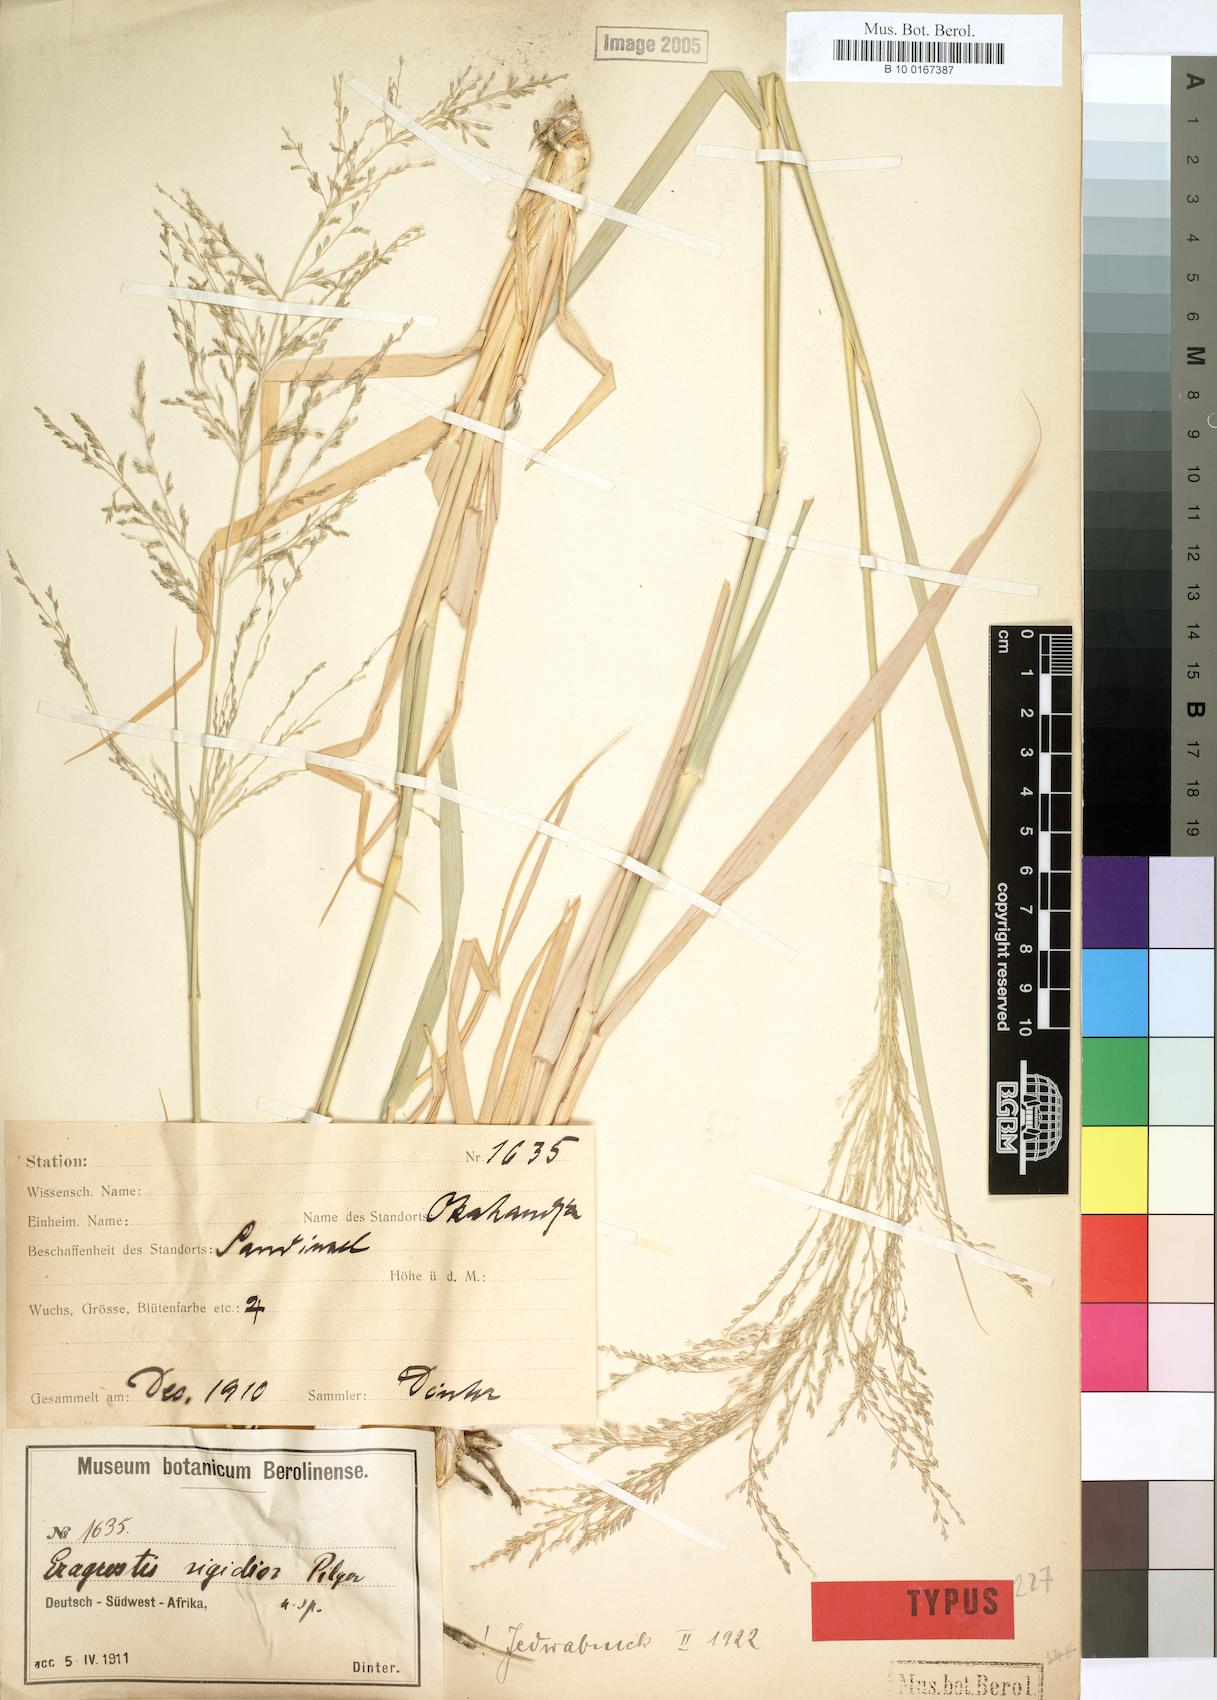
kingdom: Plantae
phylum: Tracheophyta
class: Liliopsida
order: Poales
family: Poaceae
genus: Eragrostis
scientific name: Eragrostis cylindriflora
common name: Cylinderflower lovegrass
